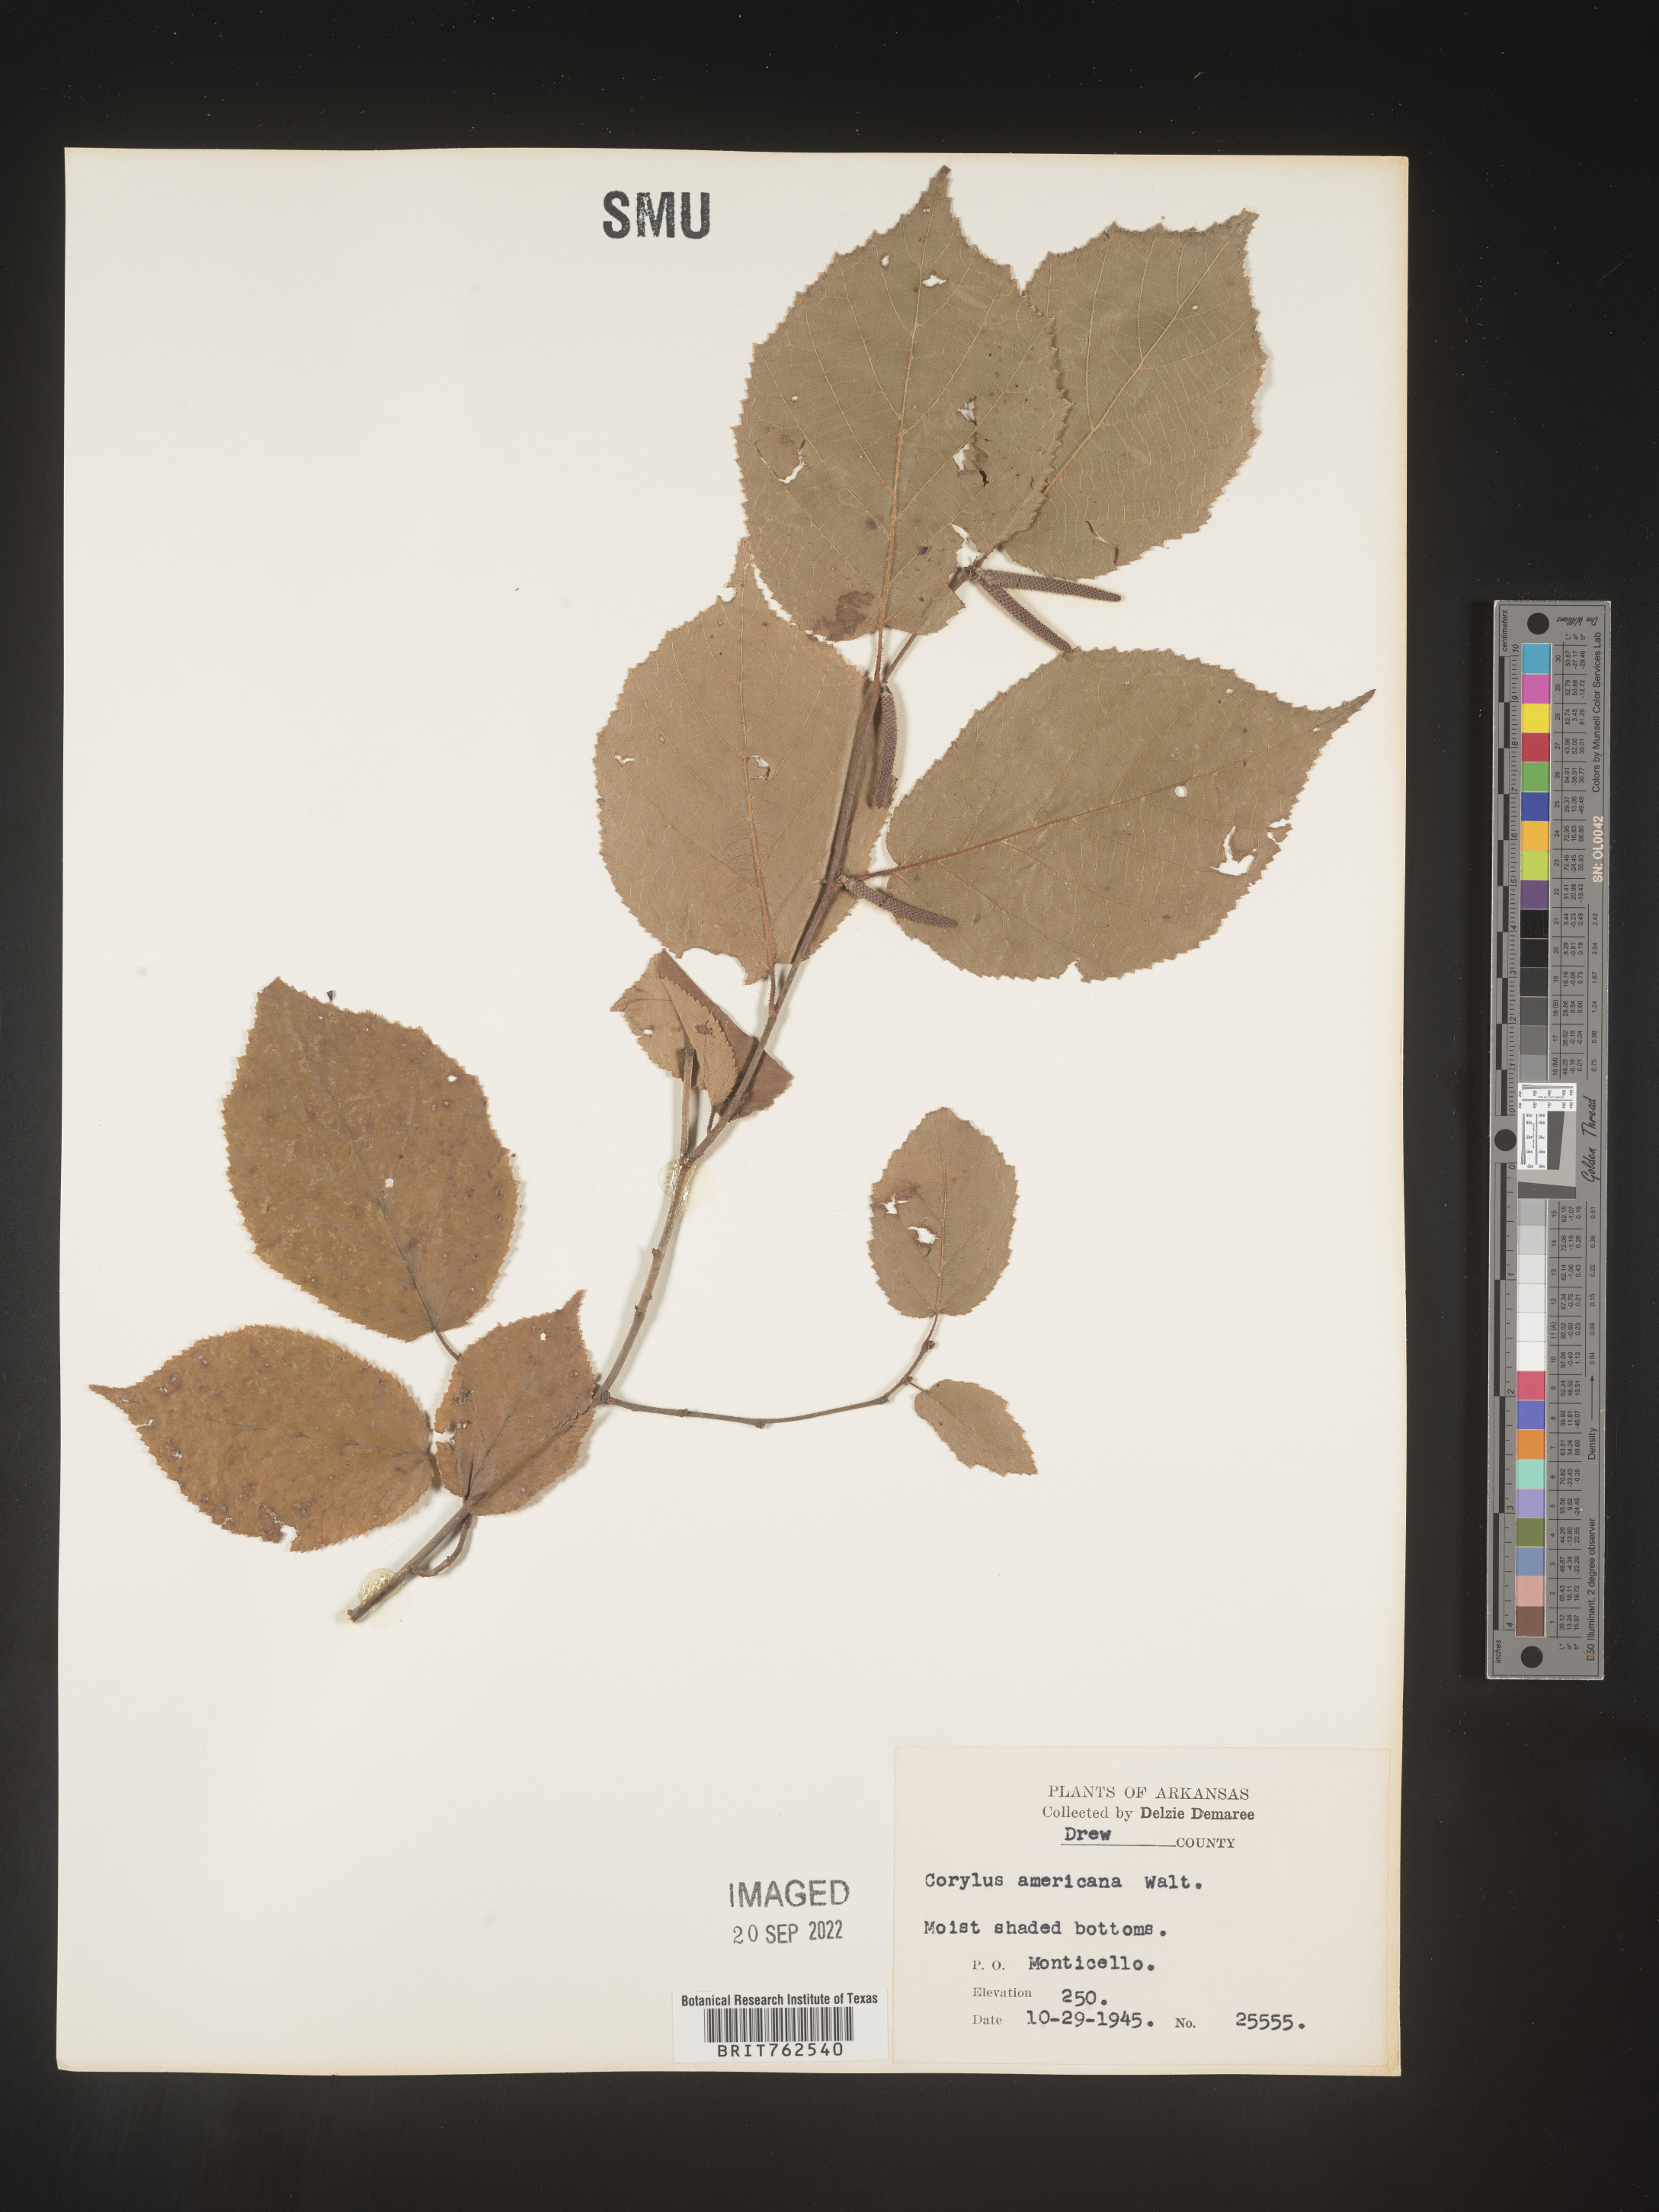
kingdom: Plantae
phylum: Tracheophyta
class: Magnoliopsida
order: Fagales
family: Betulaceae
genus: Corylus
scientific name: Corylus americana
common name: American hazel
